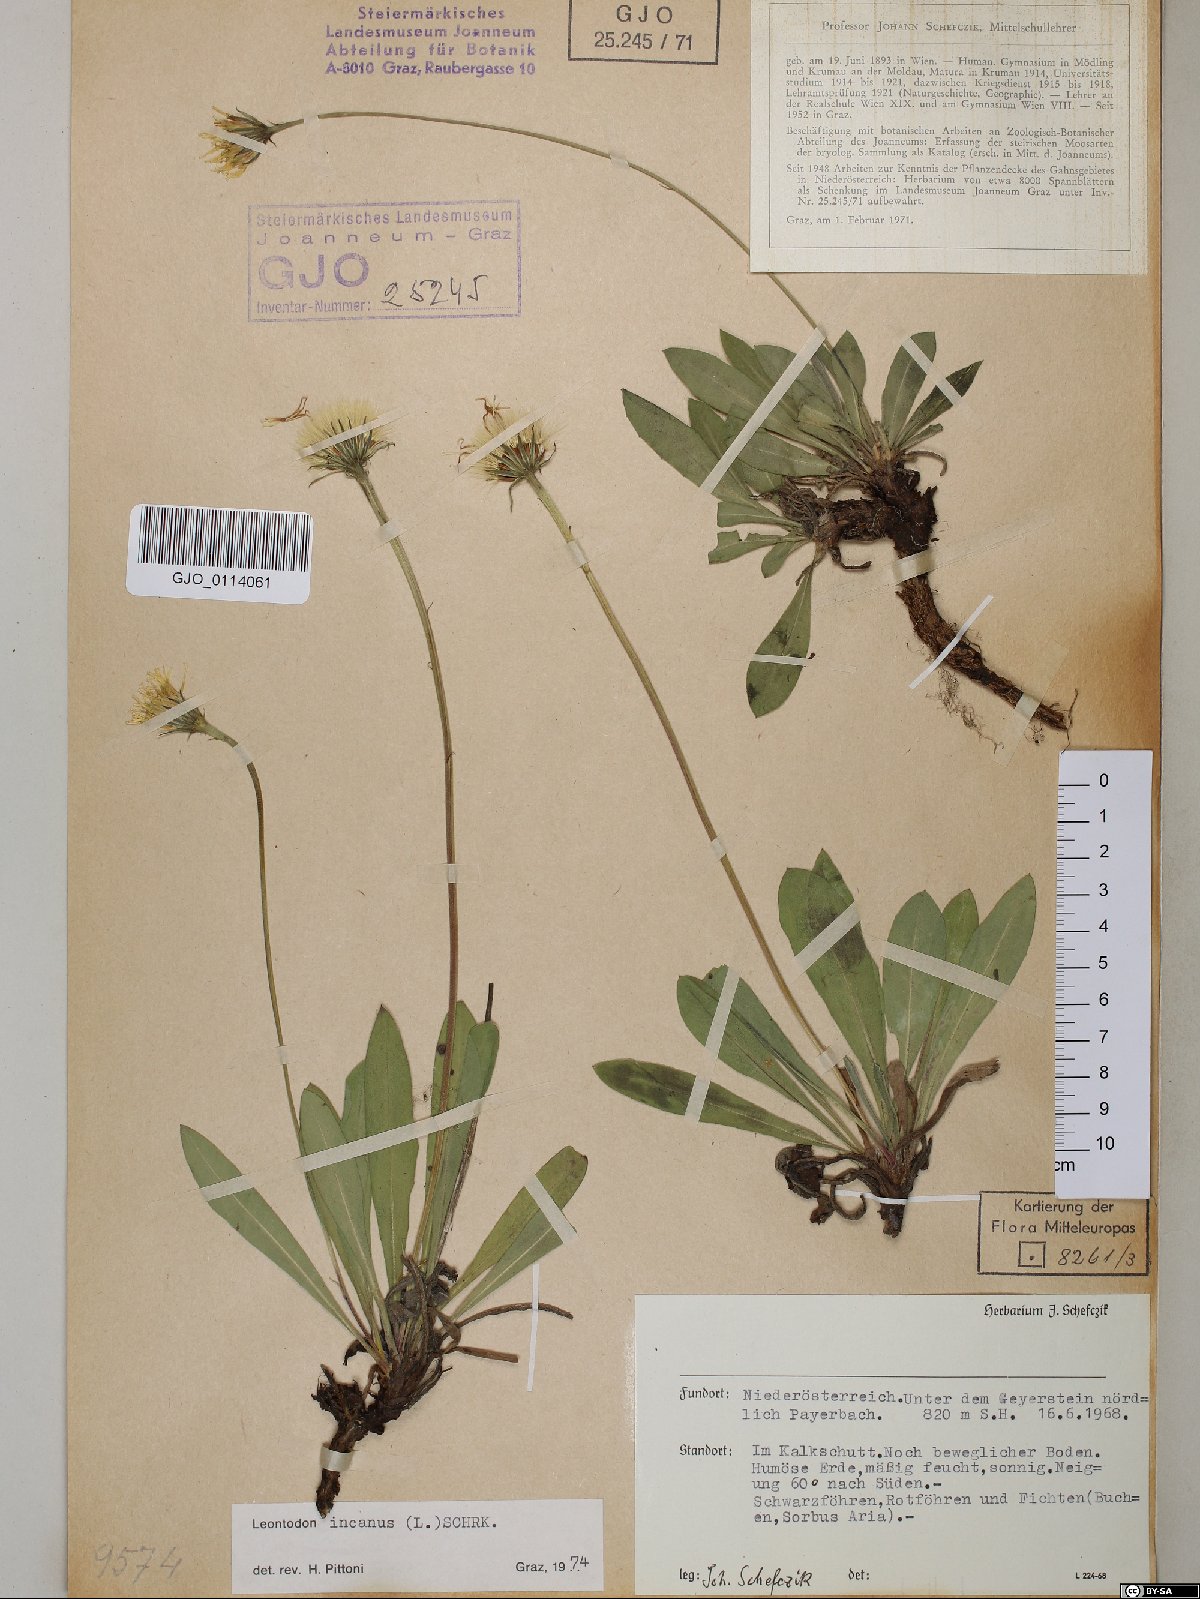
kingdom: Plantae
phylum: Tracheophyta
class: Magnoliopsida
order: Asterales
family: Asteraceae
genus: Leontodon
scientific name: Leontodon incanus
